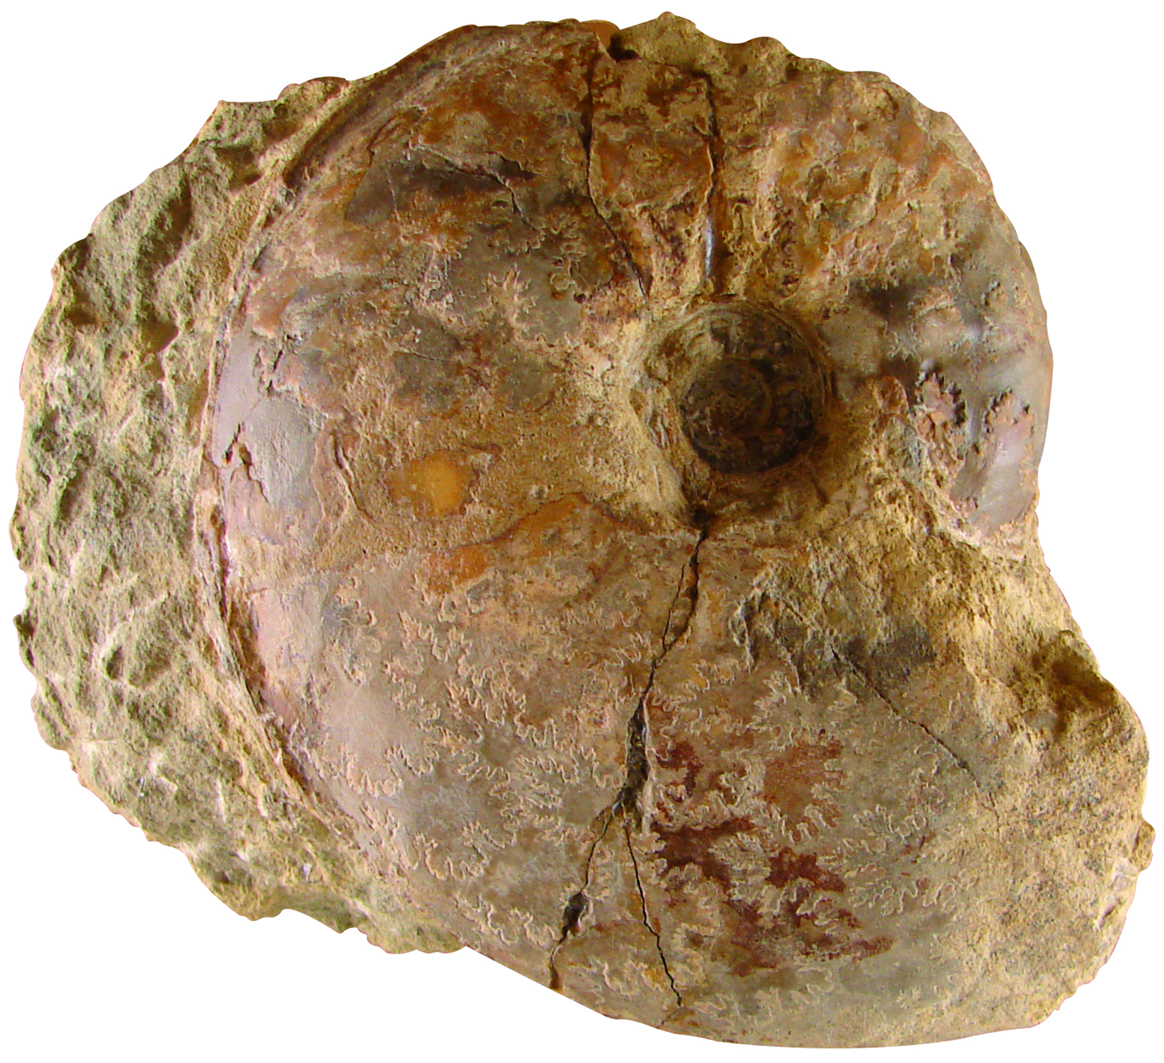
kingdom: Animalia
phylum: Mollusca
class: Cephalopoda
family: Sonniniidae
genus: Shirbuirnia
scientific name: Shirbuirnia
